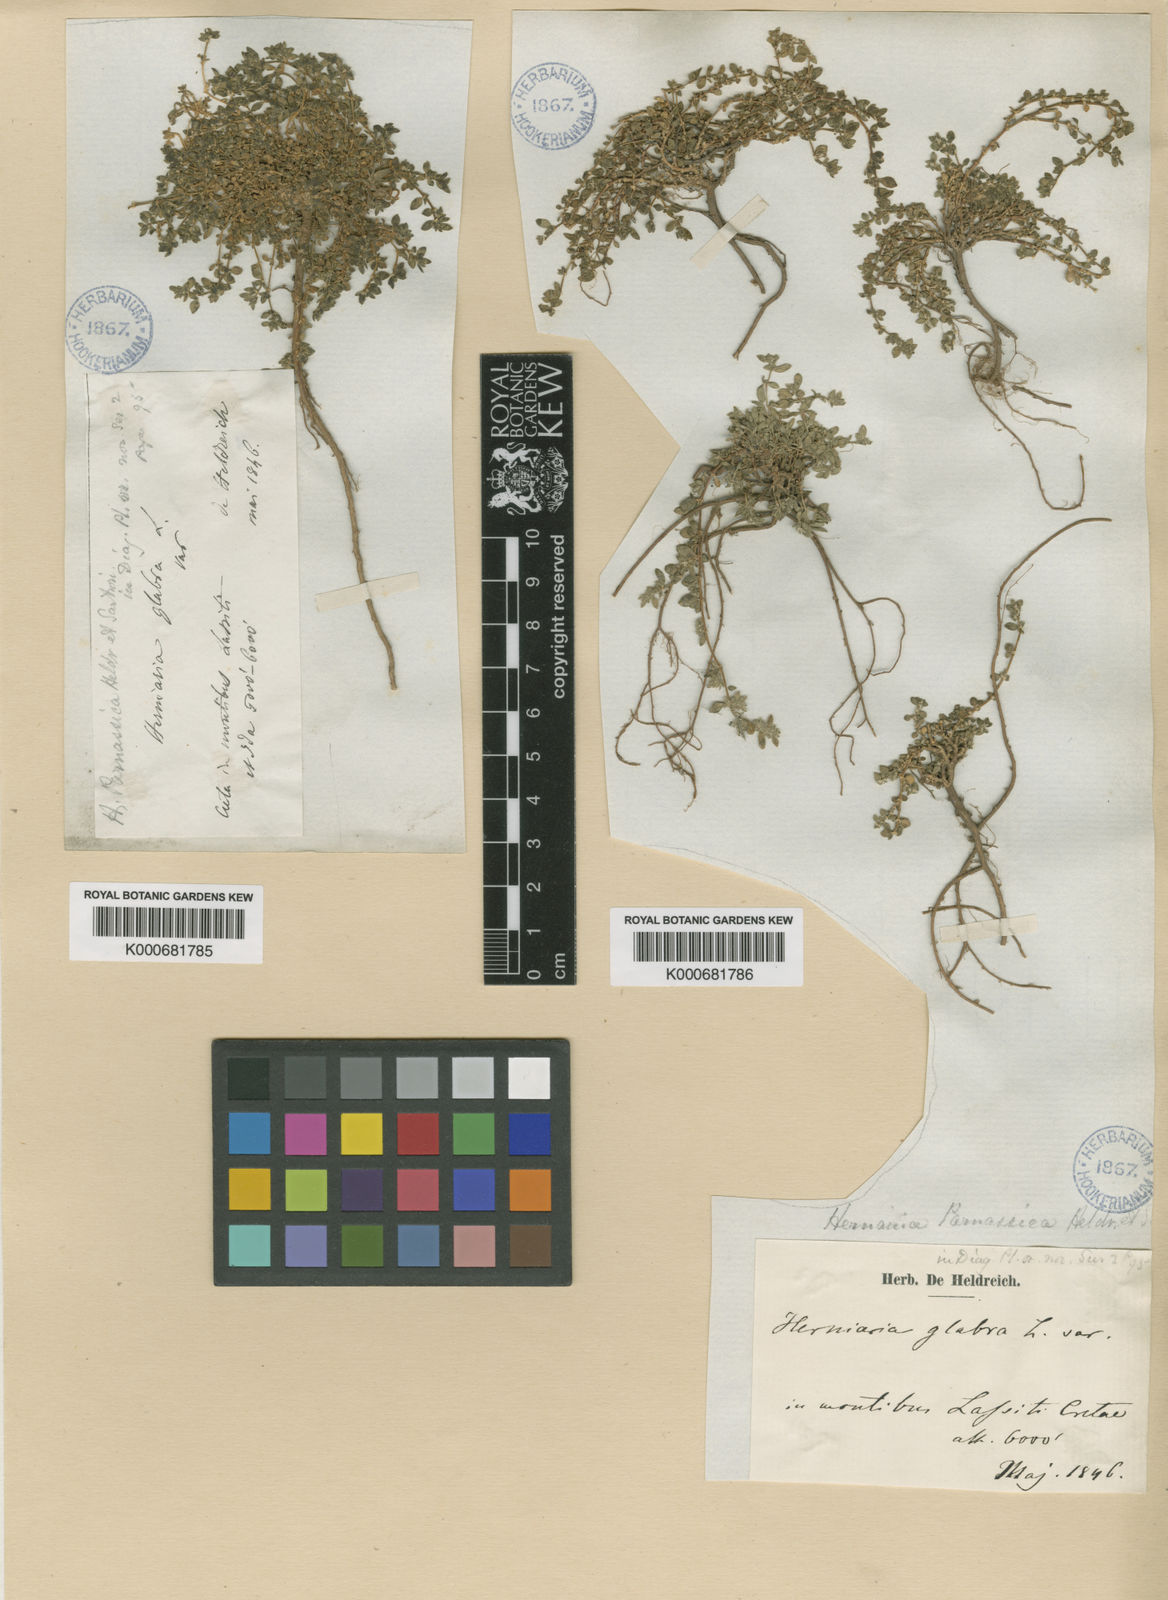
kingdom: Plantae
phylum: Tracheophyta
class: Magnoliopsida
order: Caryophyllales
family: Caryophyllaceae
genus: Herniaria
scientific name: Herniaria parnassica
